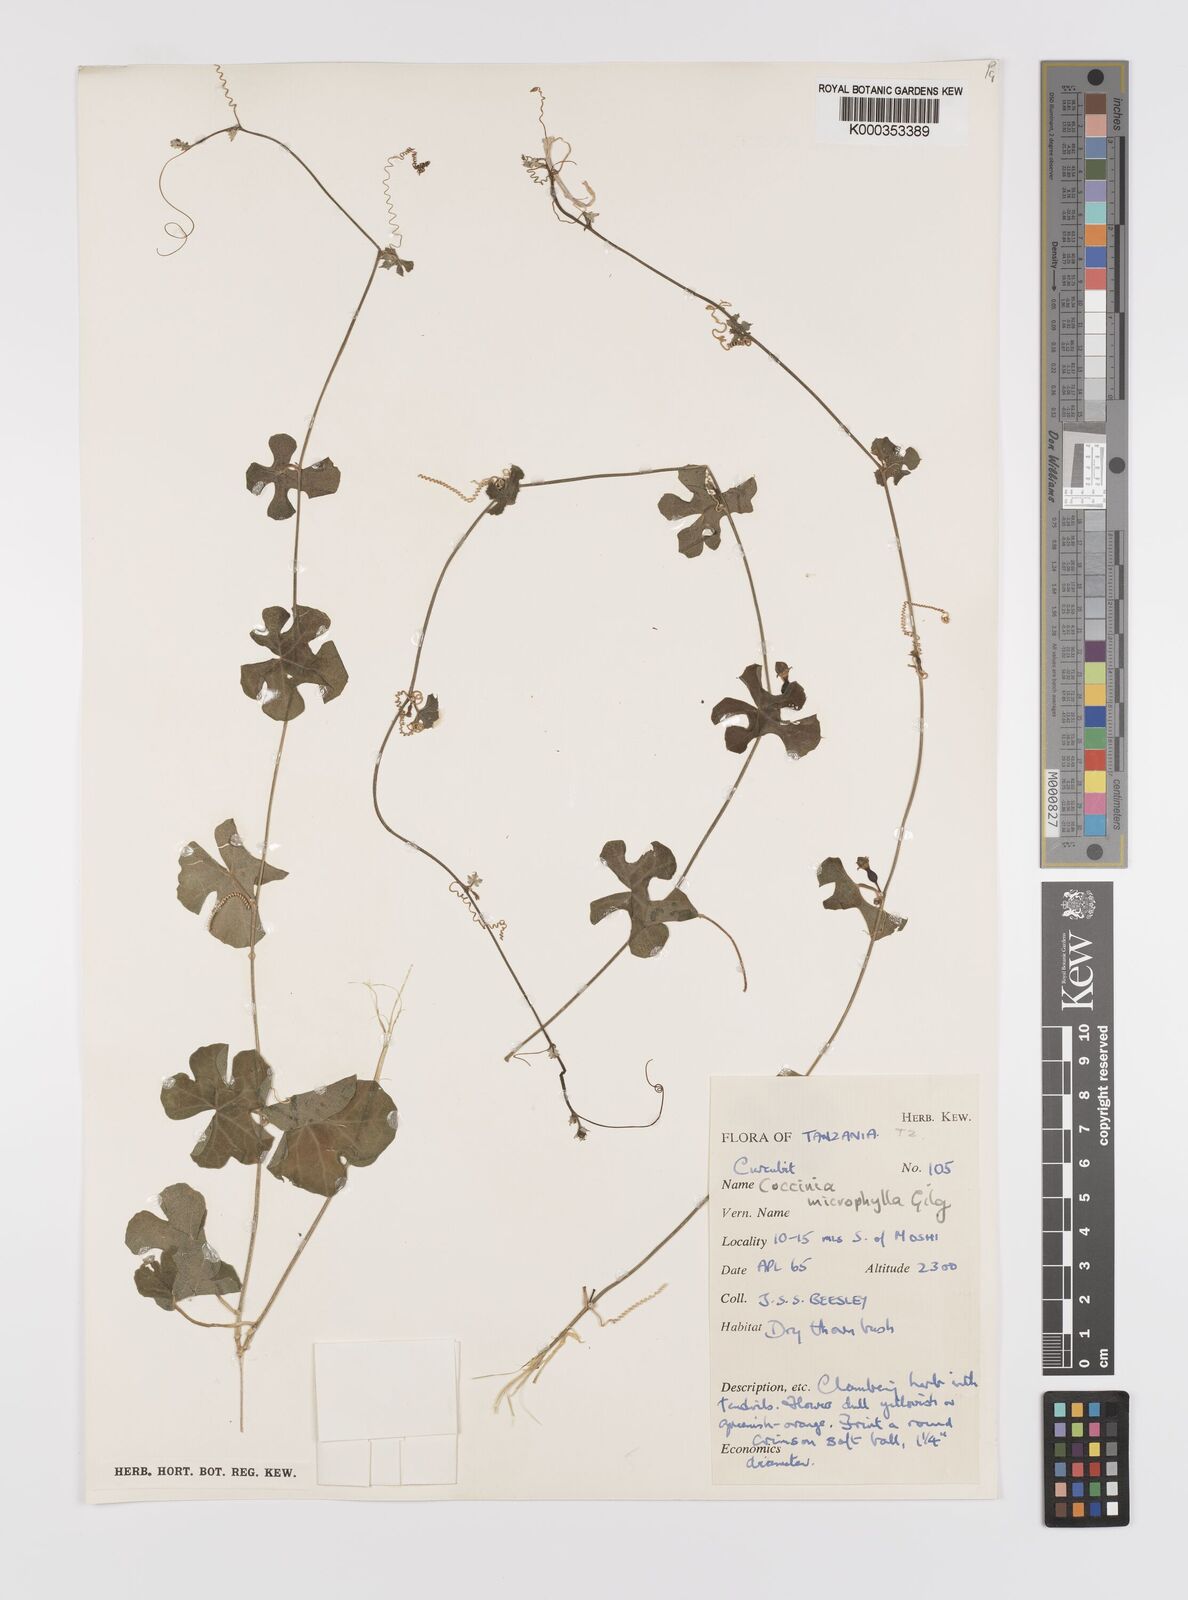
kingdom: Plantae
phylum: Tracheophyta
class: Magnoliopsida
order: Cucurbitales
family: Cucurbitaceae
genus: Coccinia
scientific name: Coccinia microphylla
